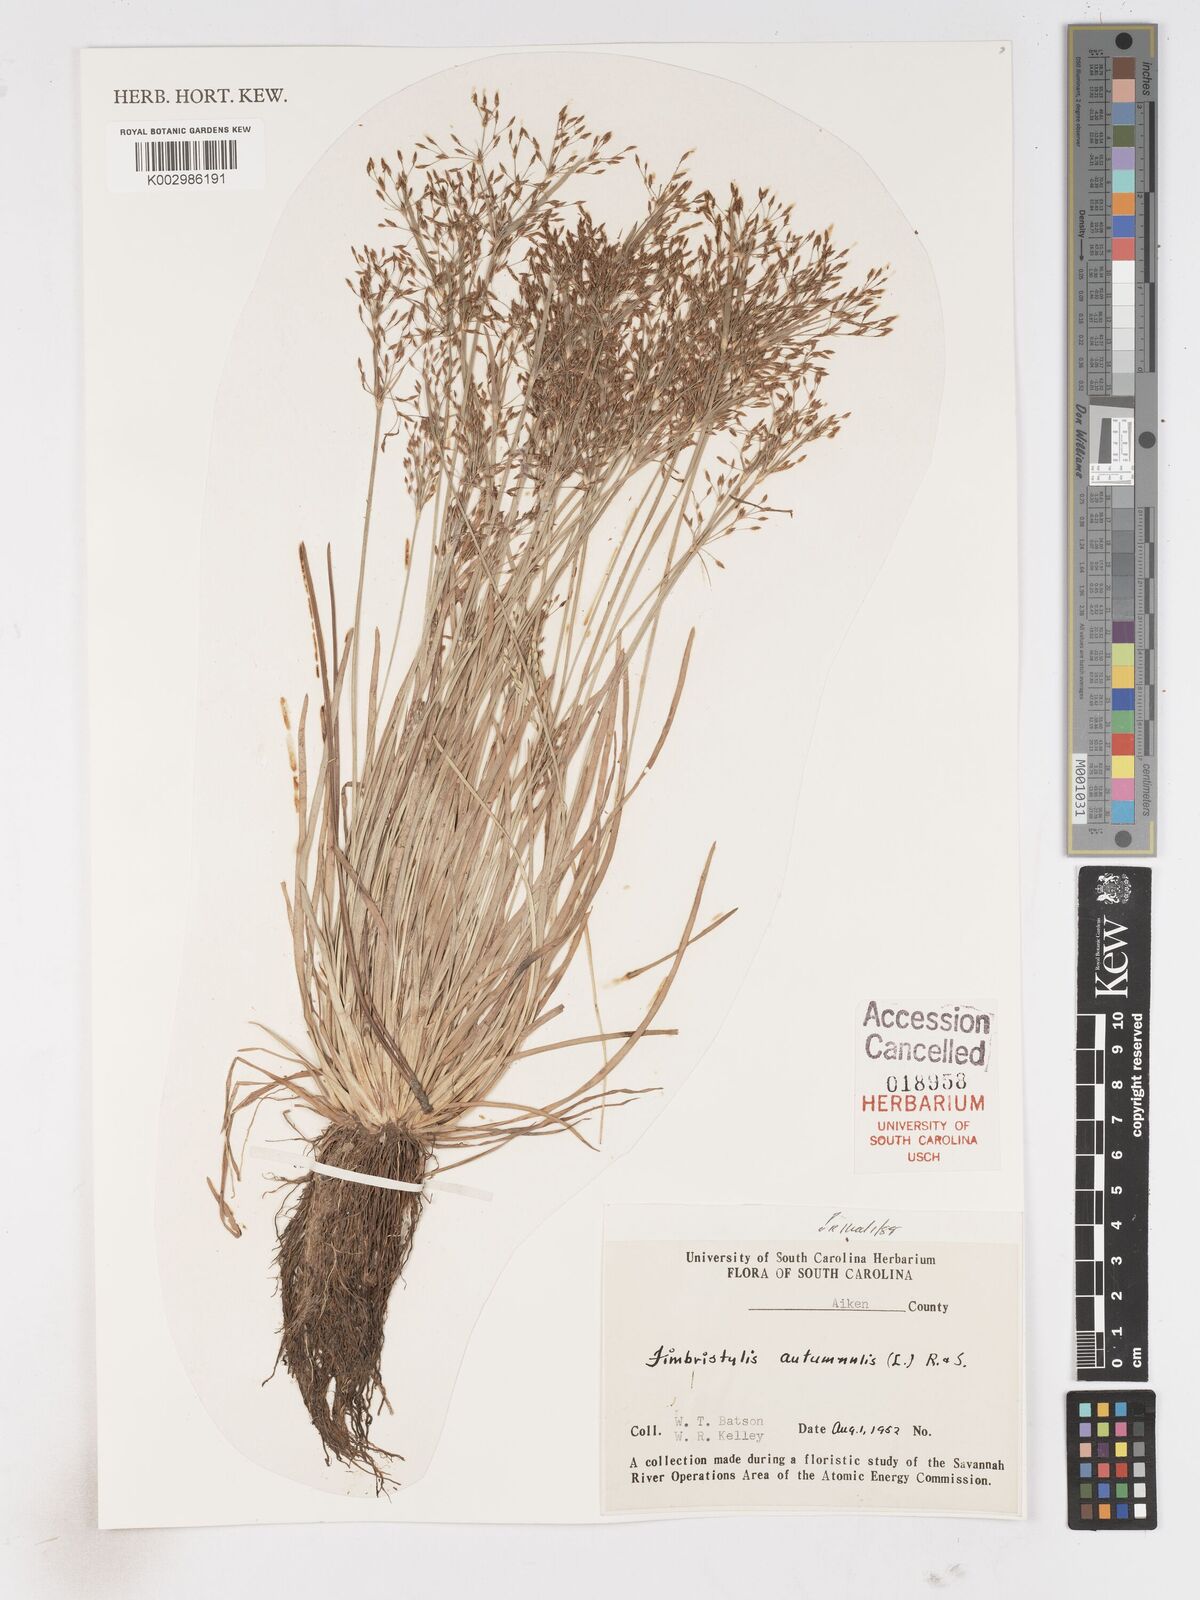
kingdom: Plantae
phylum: Tracheophyta
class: Liliopsida
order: Poales
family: Cyperaceae
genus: Fimbristylis
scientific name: Fimbristylis autumnalis
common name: Slender fimbristylis
